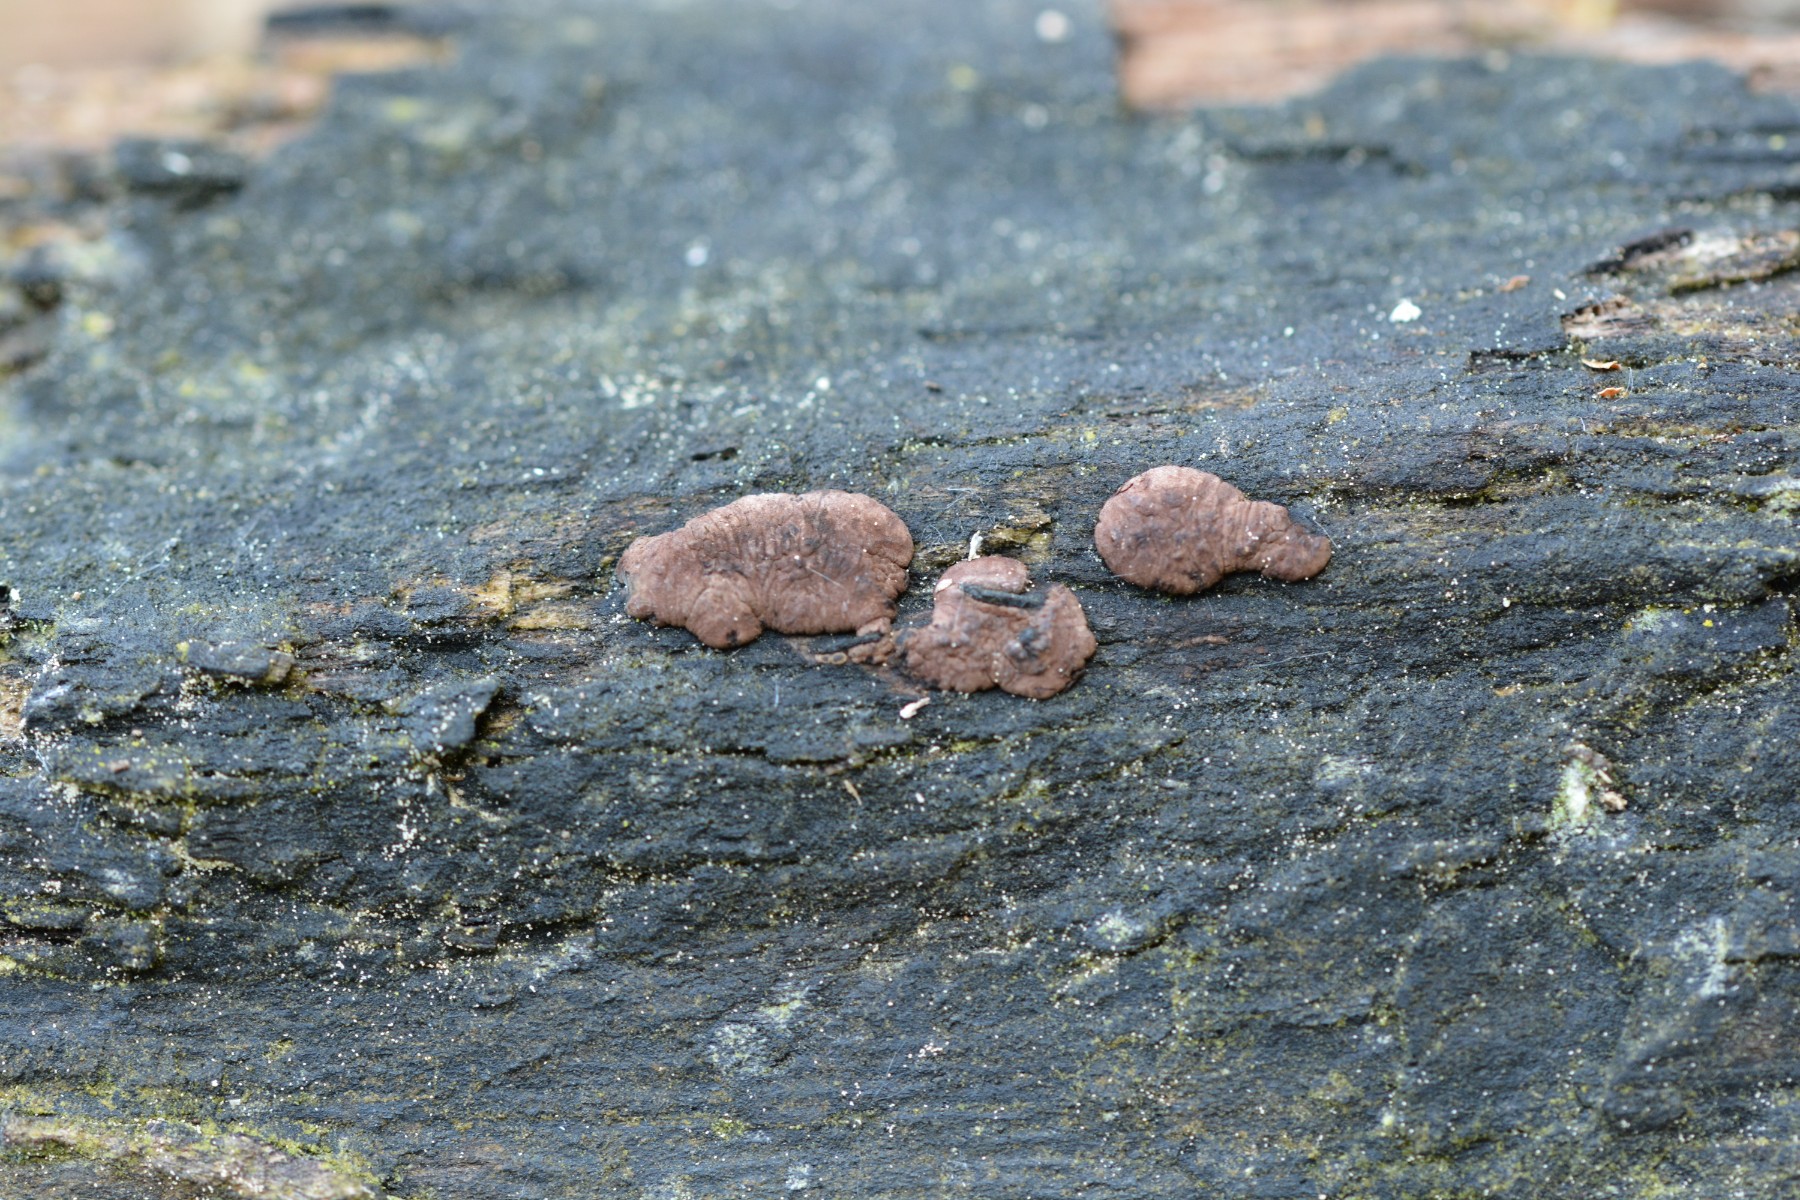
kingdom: Fungi
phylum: Ascomycota
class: Sordariomycetes
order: Xylariales
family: Hypoxylaceae
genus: Jackrogersella
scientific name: Jackrogersella
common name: kulbær
